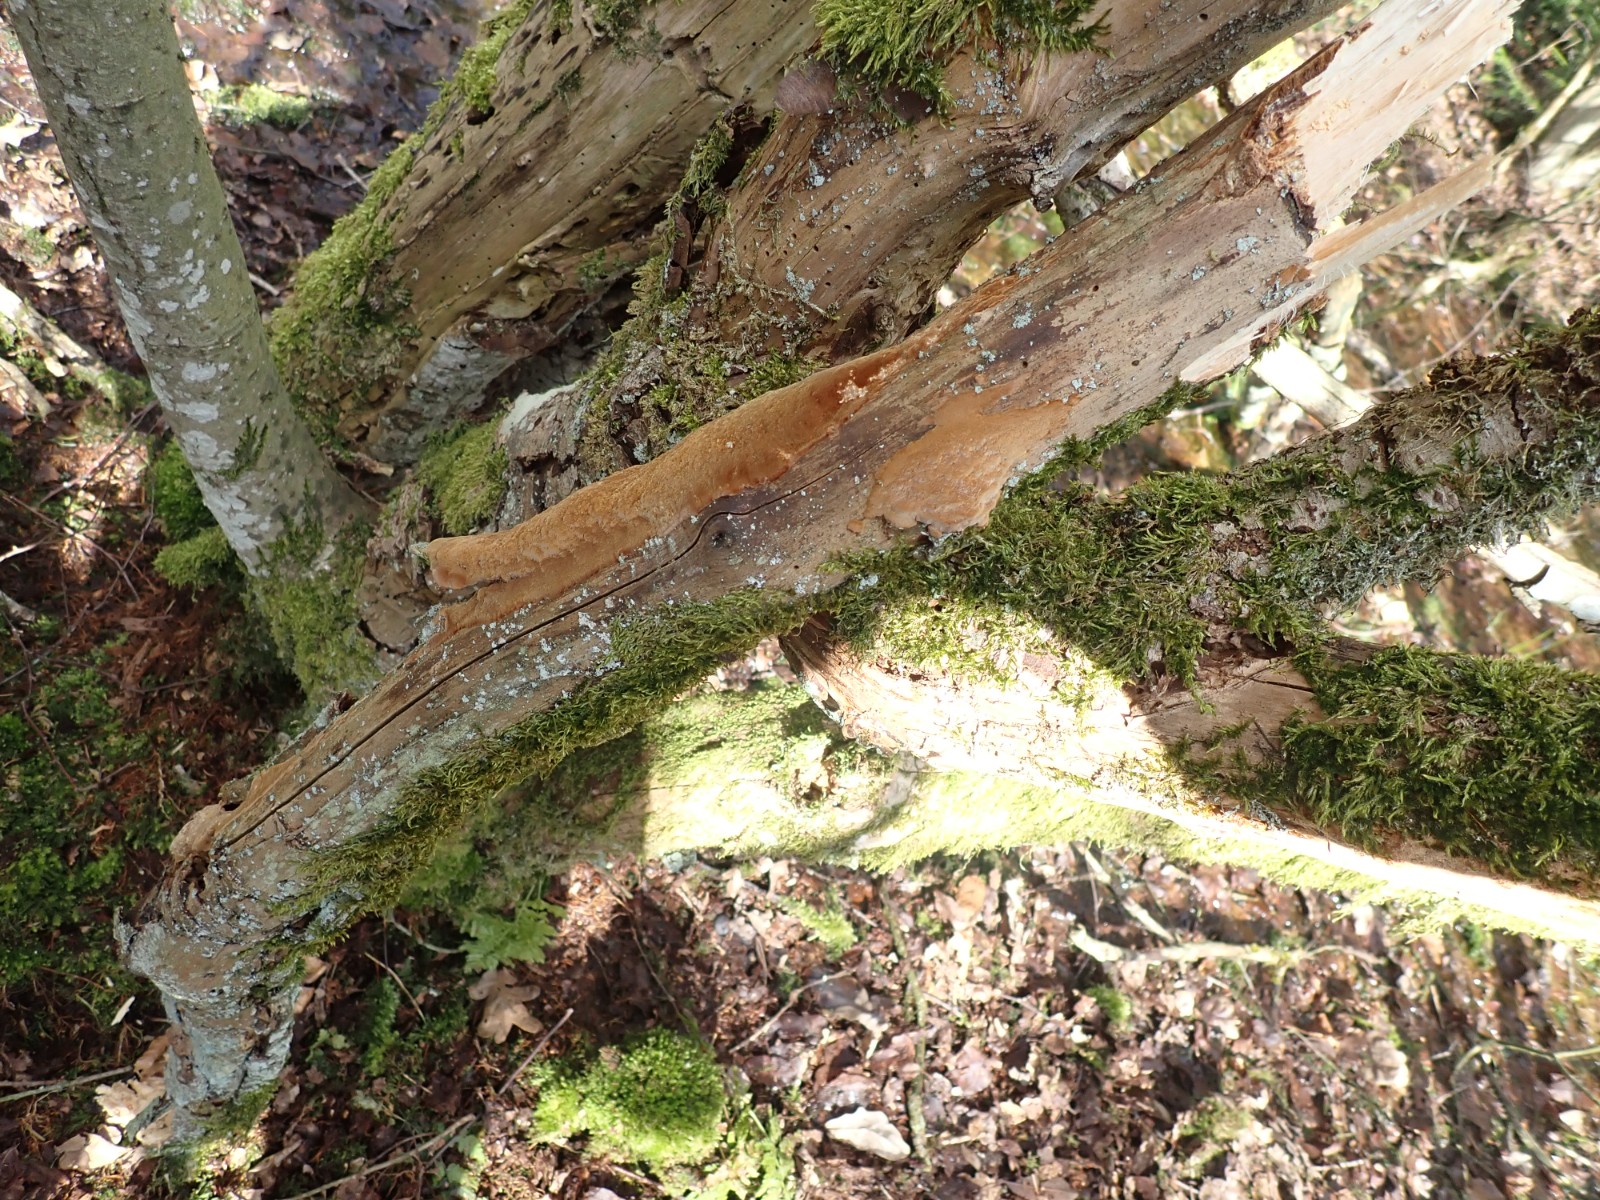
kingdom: Fungi
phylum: Basidiomycota
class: Agaricomycetes
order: Hymenochaetales
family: Hymenochaetaceae
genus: Fuscoporia
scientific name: Fuscoporia ferrea
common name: skorpe-ildporesvamp
